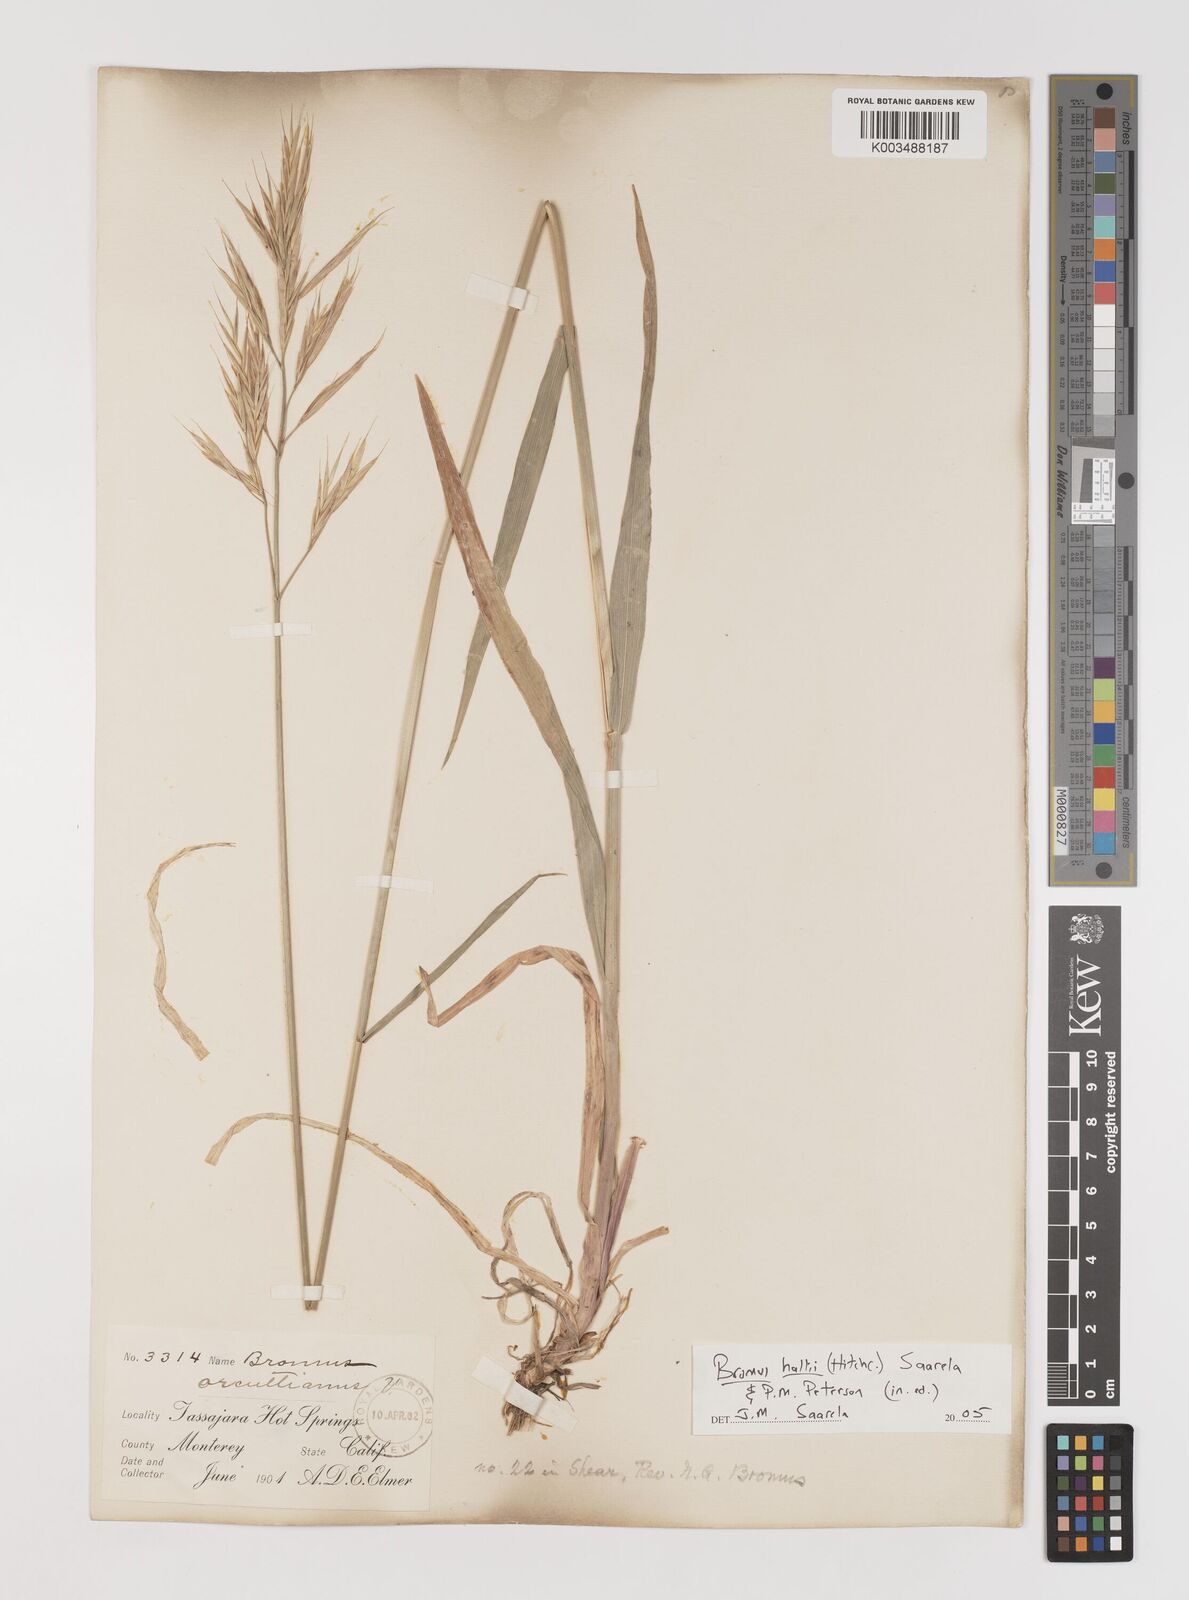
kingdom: Plantae
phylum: Tracheophyta
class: Liliopsida
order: Poales
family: Poaceae
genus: Bromus
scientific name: Bromus
